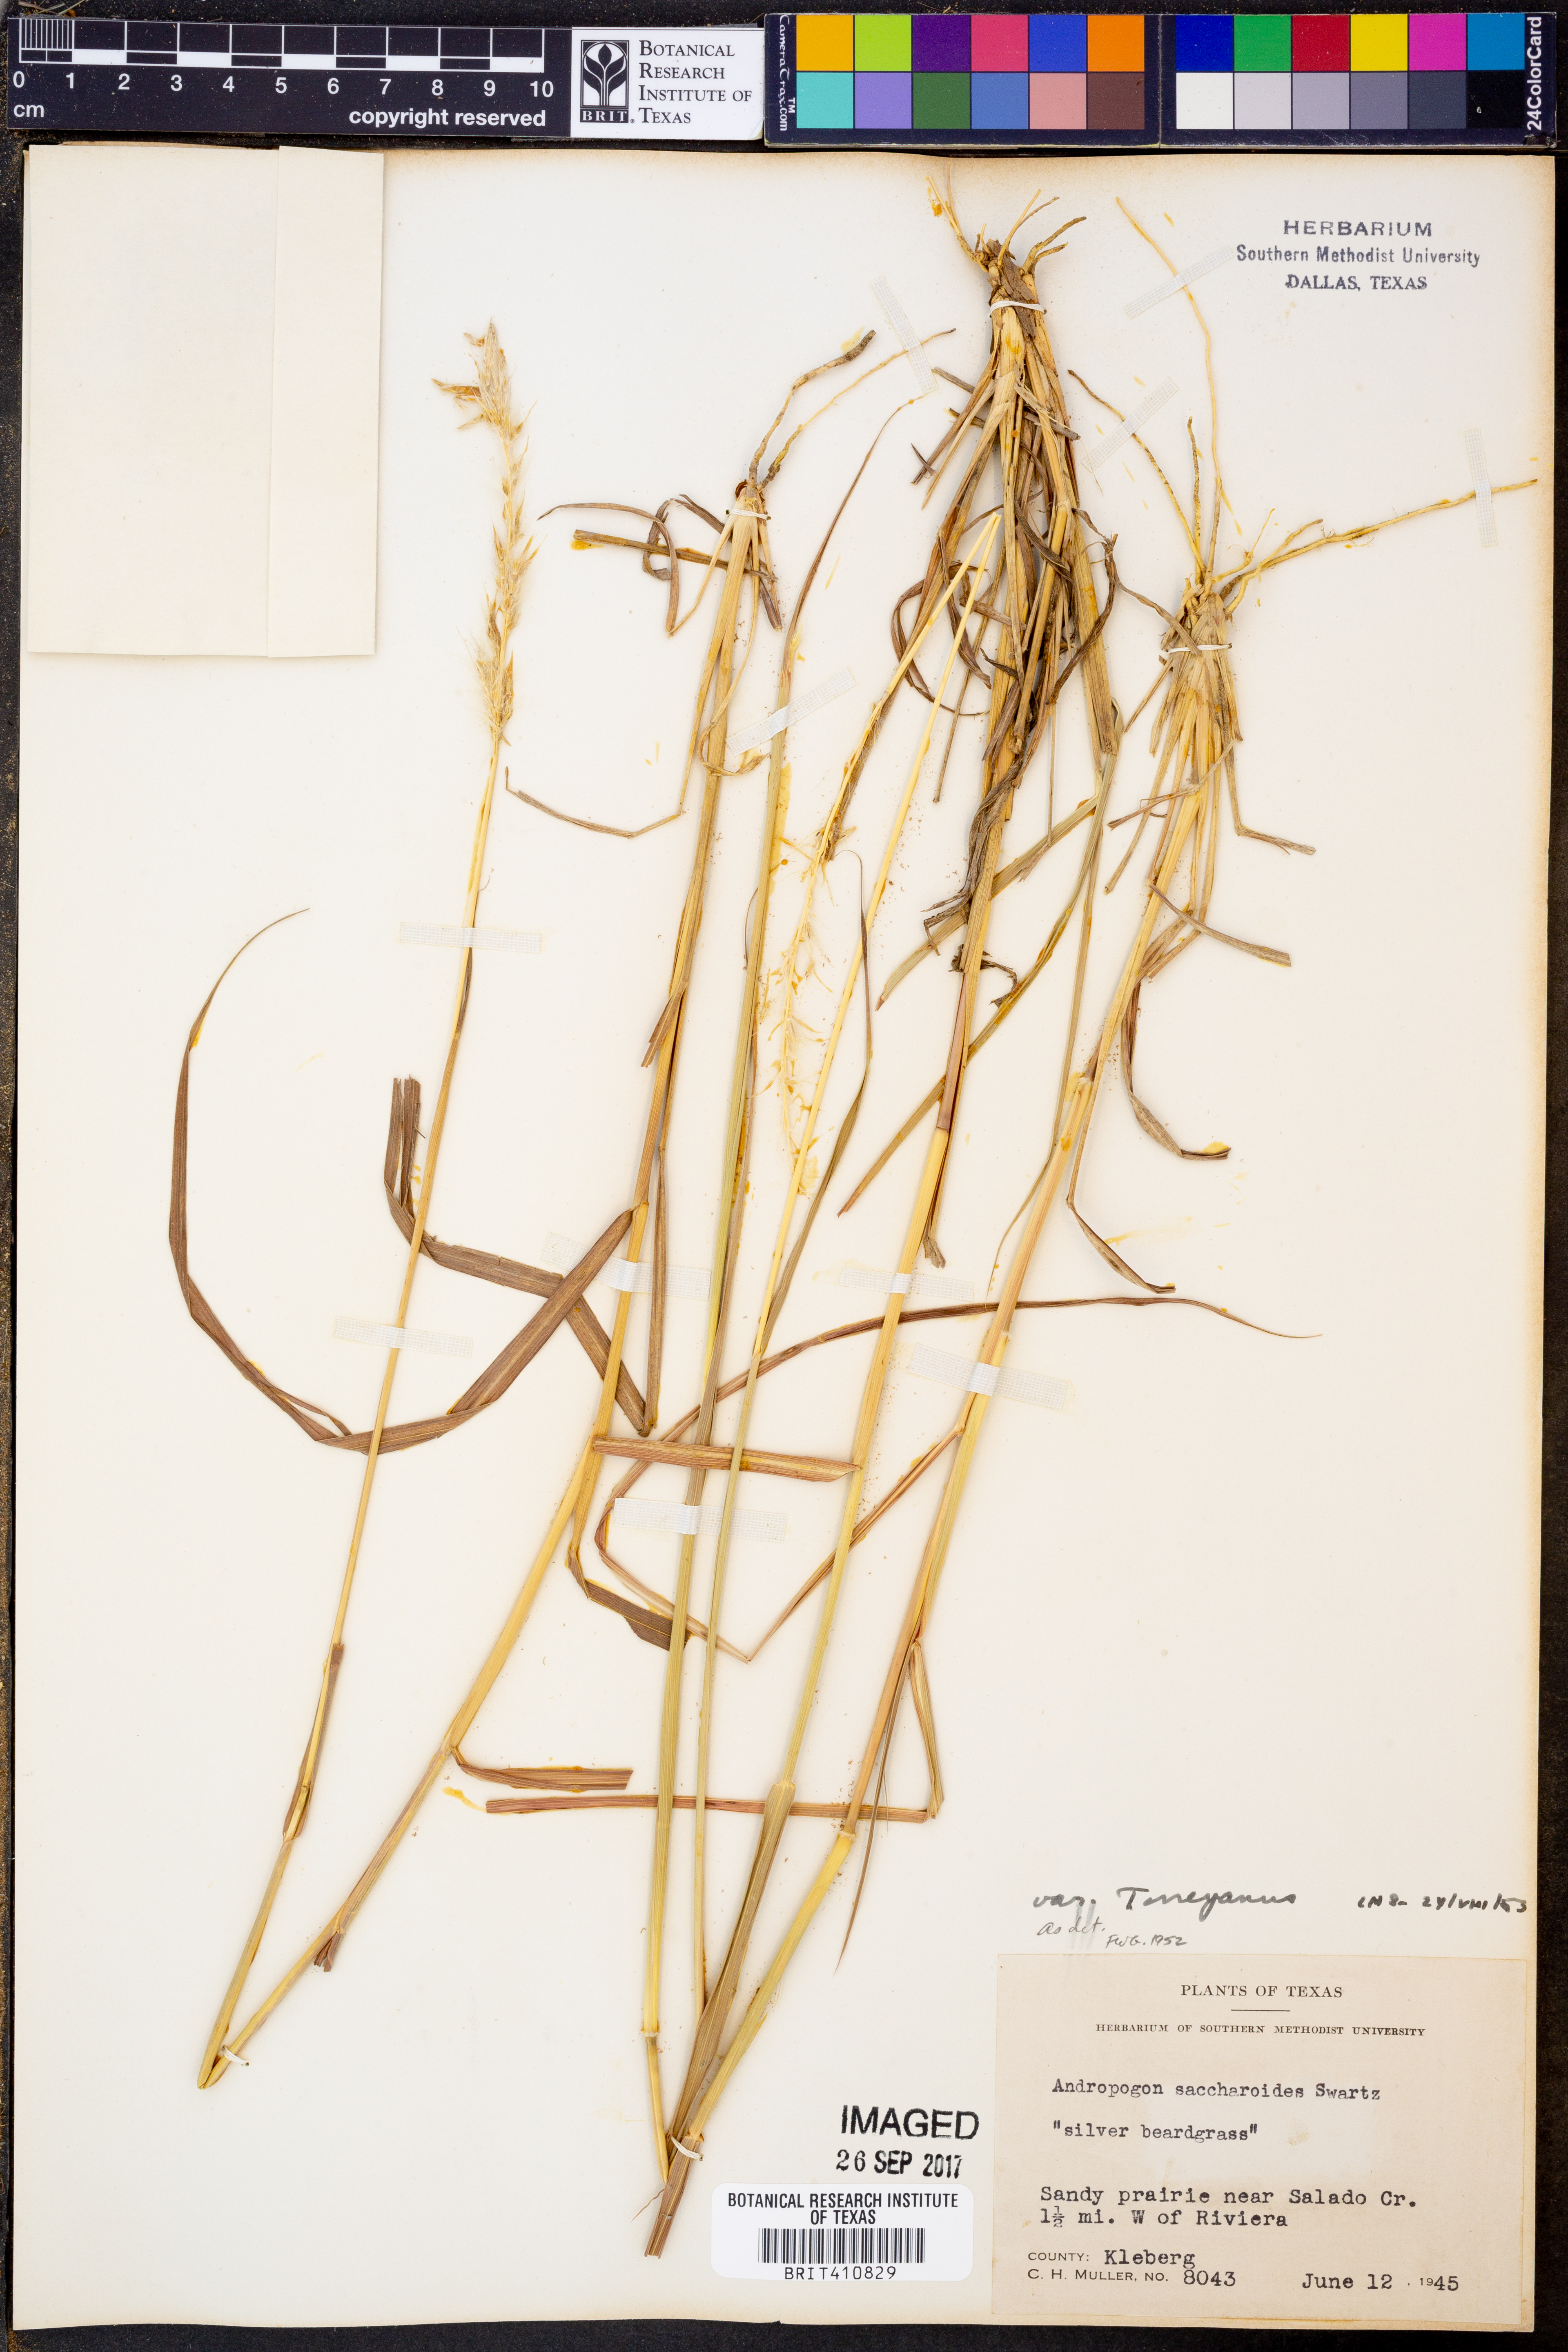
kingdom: Plantae
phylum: Tracheophyta
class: Liliopsida
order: Poales
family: Poaceae
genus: Bothriochloa
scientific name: Bothriochloa torreyana
